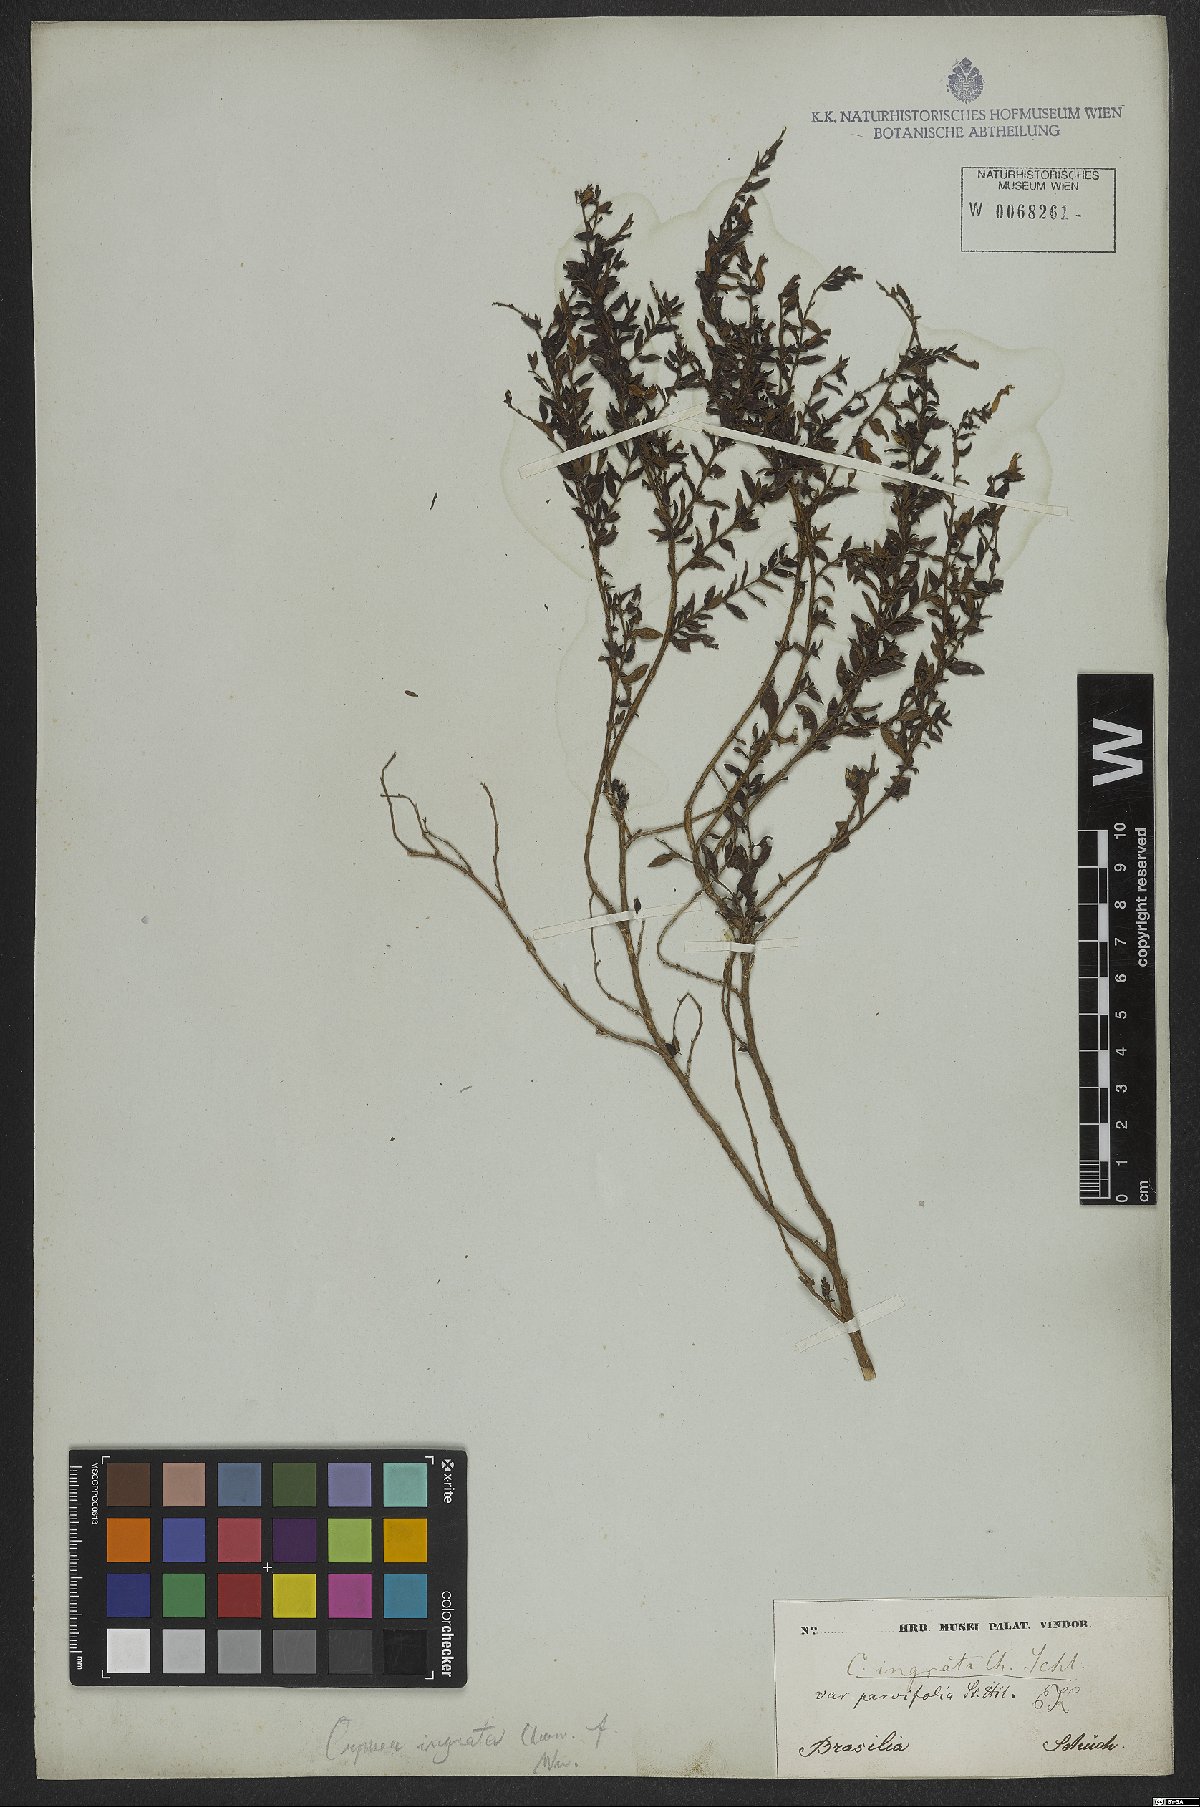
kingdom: Plantae
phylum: Tracheophyta
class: Magnoliopsida
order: Myrtales
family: Lythraceae
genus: Cuphea
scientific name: Cuphea ingrata
